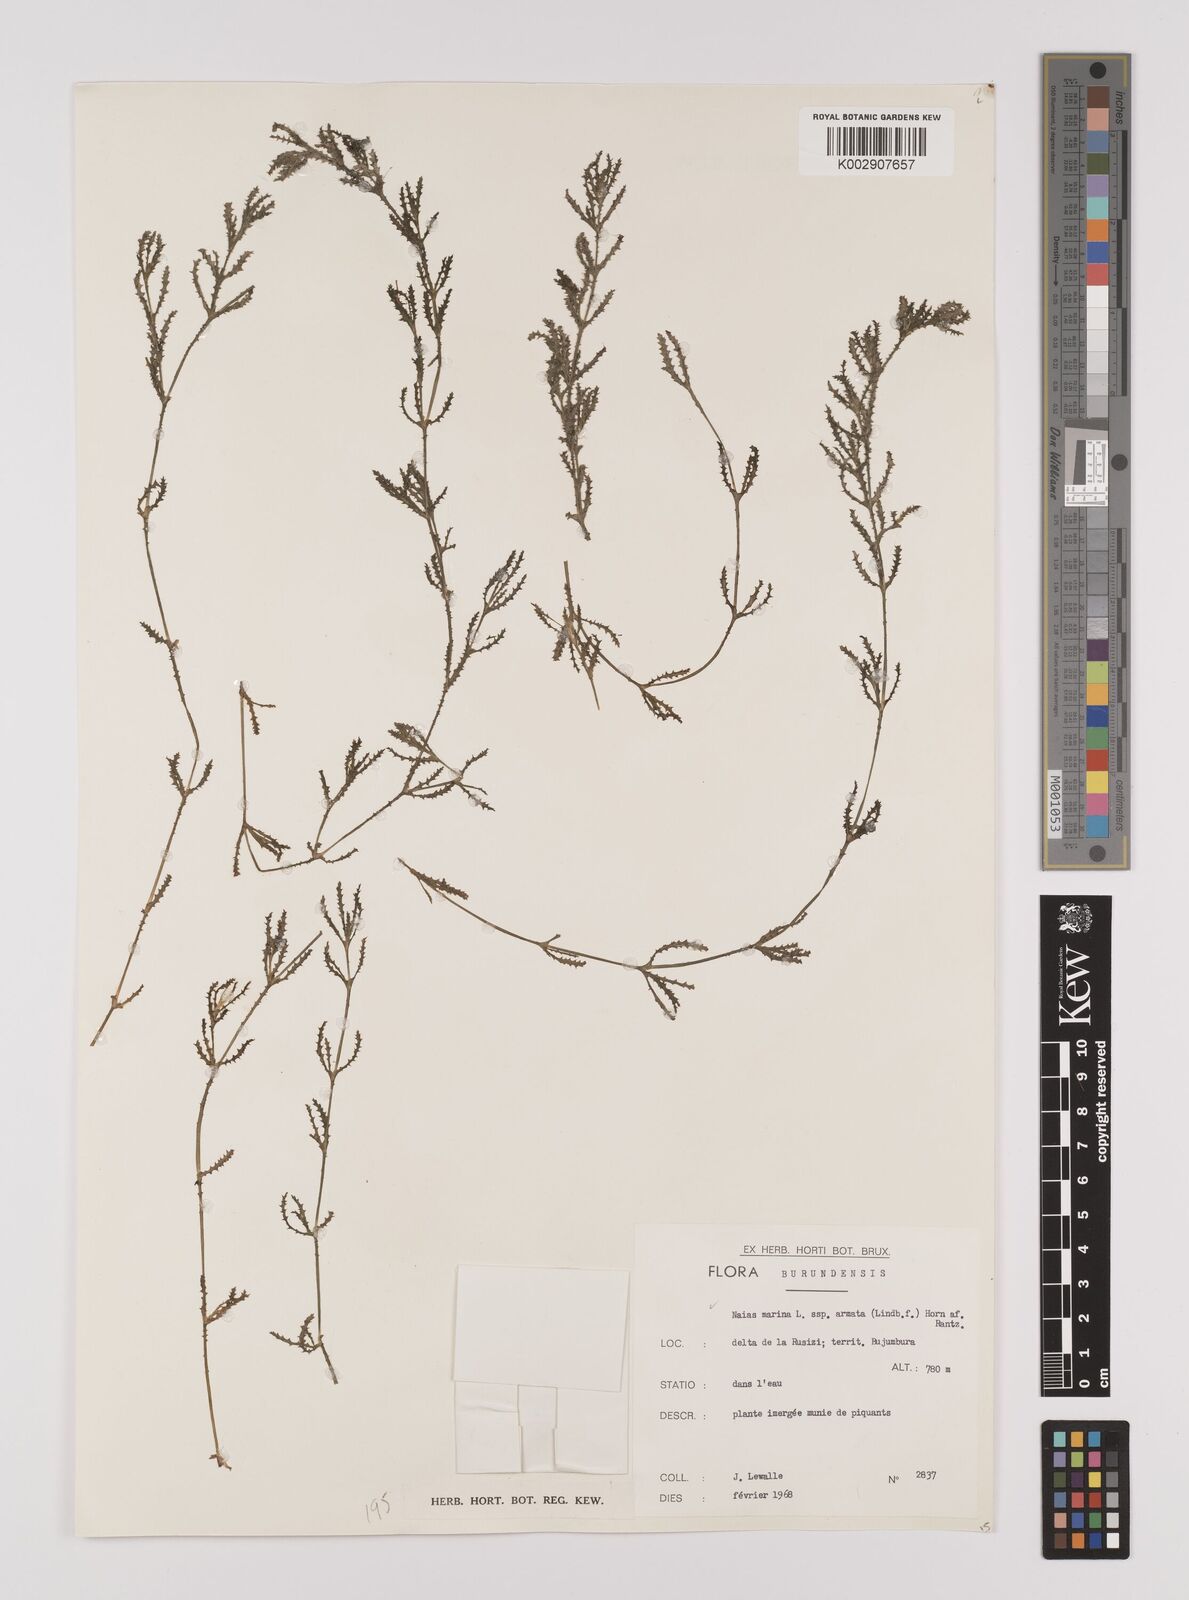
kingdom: Plantae
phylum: Tracheophyta
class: Liliopsida
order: Alismatales
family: Hydrocharitaceae
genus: Najas
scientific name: Najas marina
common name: Holly-leaved naiad
